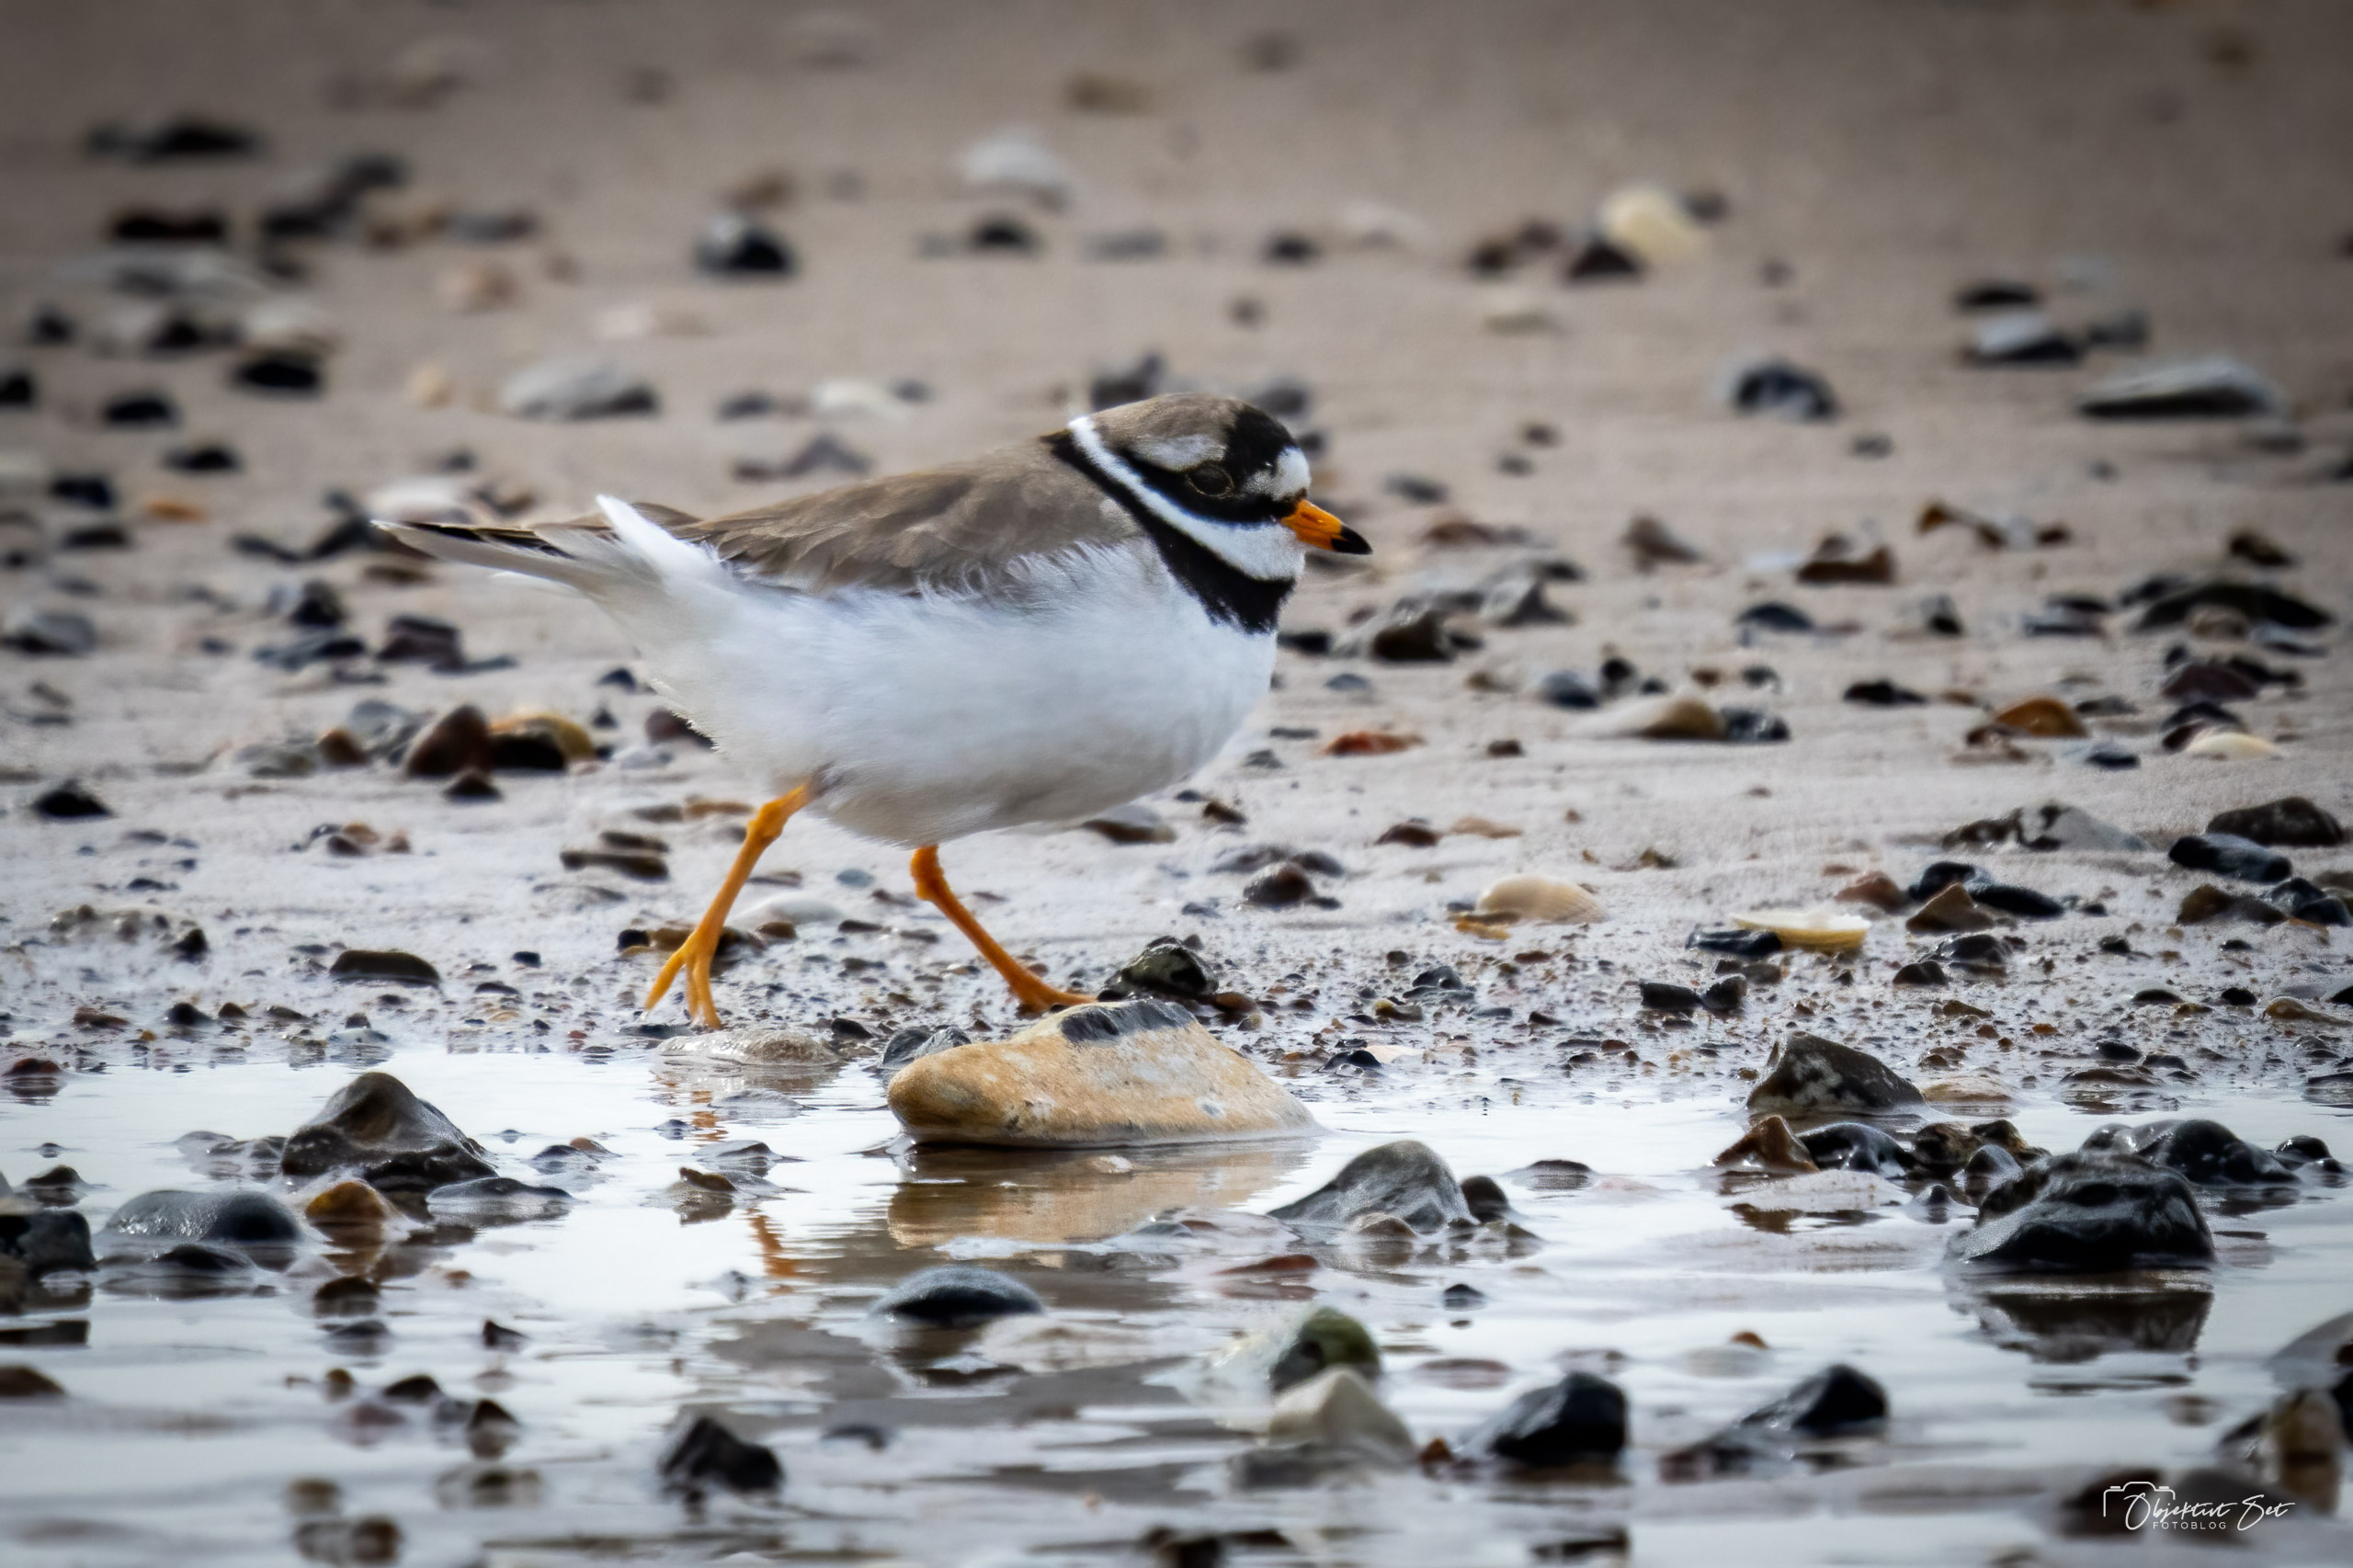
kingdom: Animalia
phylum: Chordata
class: Aves
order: Charadriiformes
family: Charadriidae
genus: Charadrius
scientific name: Charadrius hiaticula
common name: Stor præstekrave
